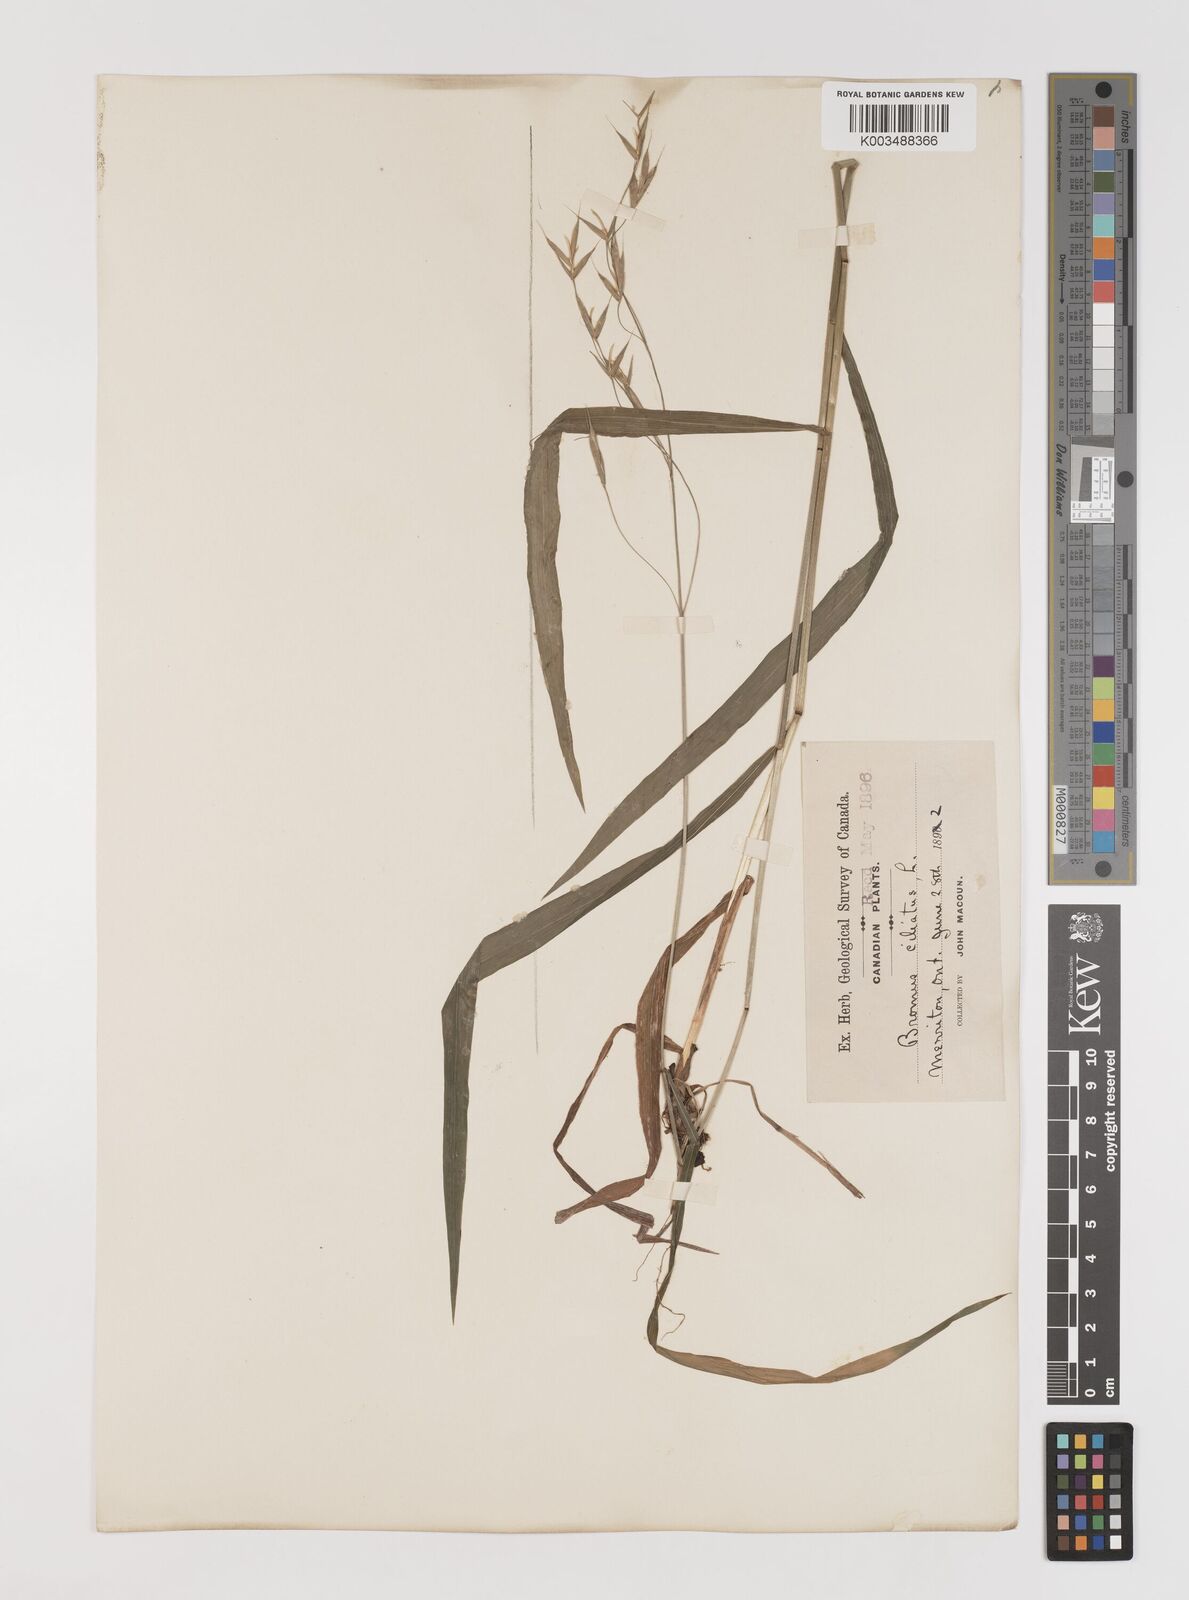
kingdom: Plantae
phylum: Tracheophyta
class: Liliopsida
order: Poales
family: Poaceae
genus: Bromus
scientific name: Bromus ciliatus
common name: Fringe brome
